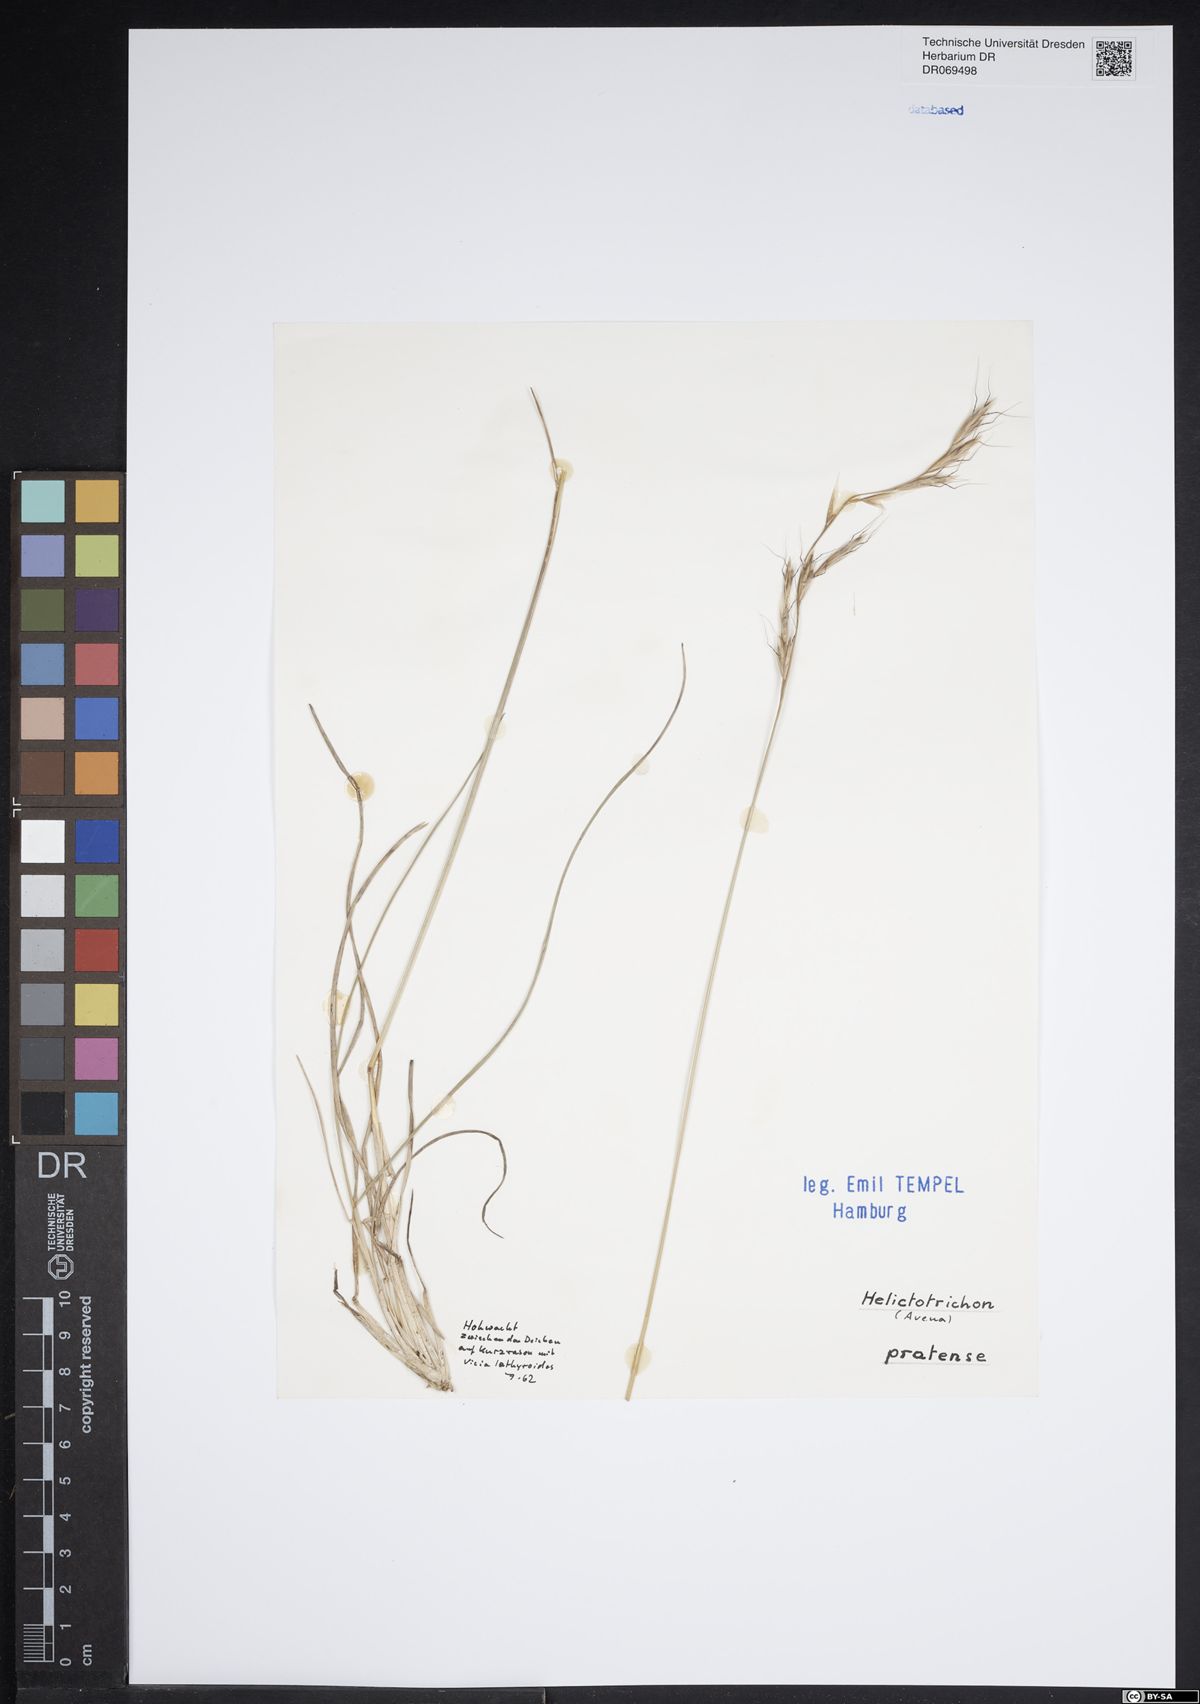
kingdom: Plantae
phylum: Tracheophyta
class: Liliopsida
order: Poales
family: Poaceae
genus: Helictochloa
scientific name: Helictochloa pratensis
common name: Meadow oat grass
